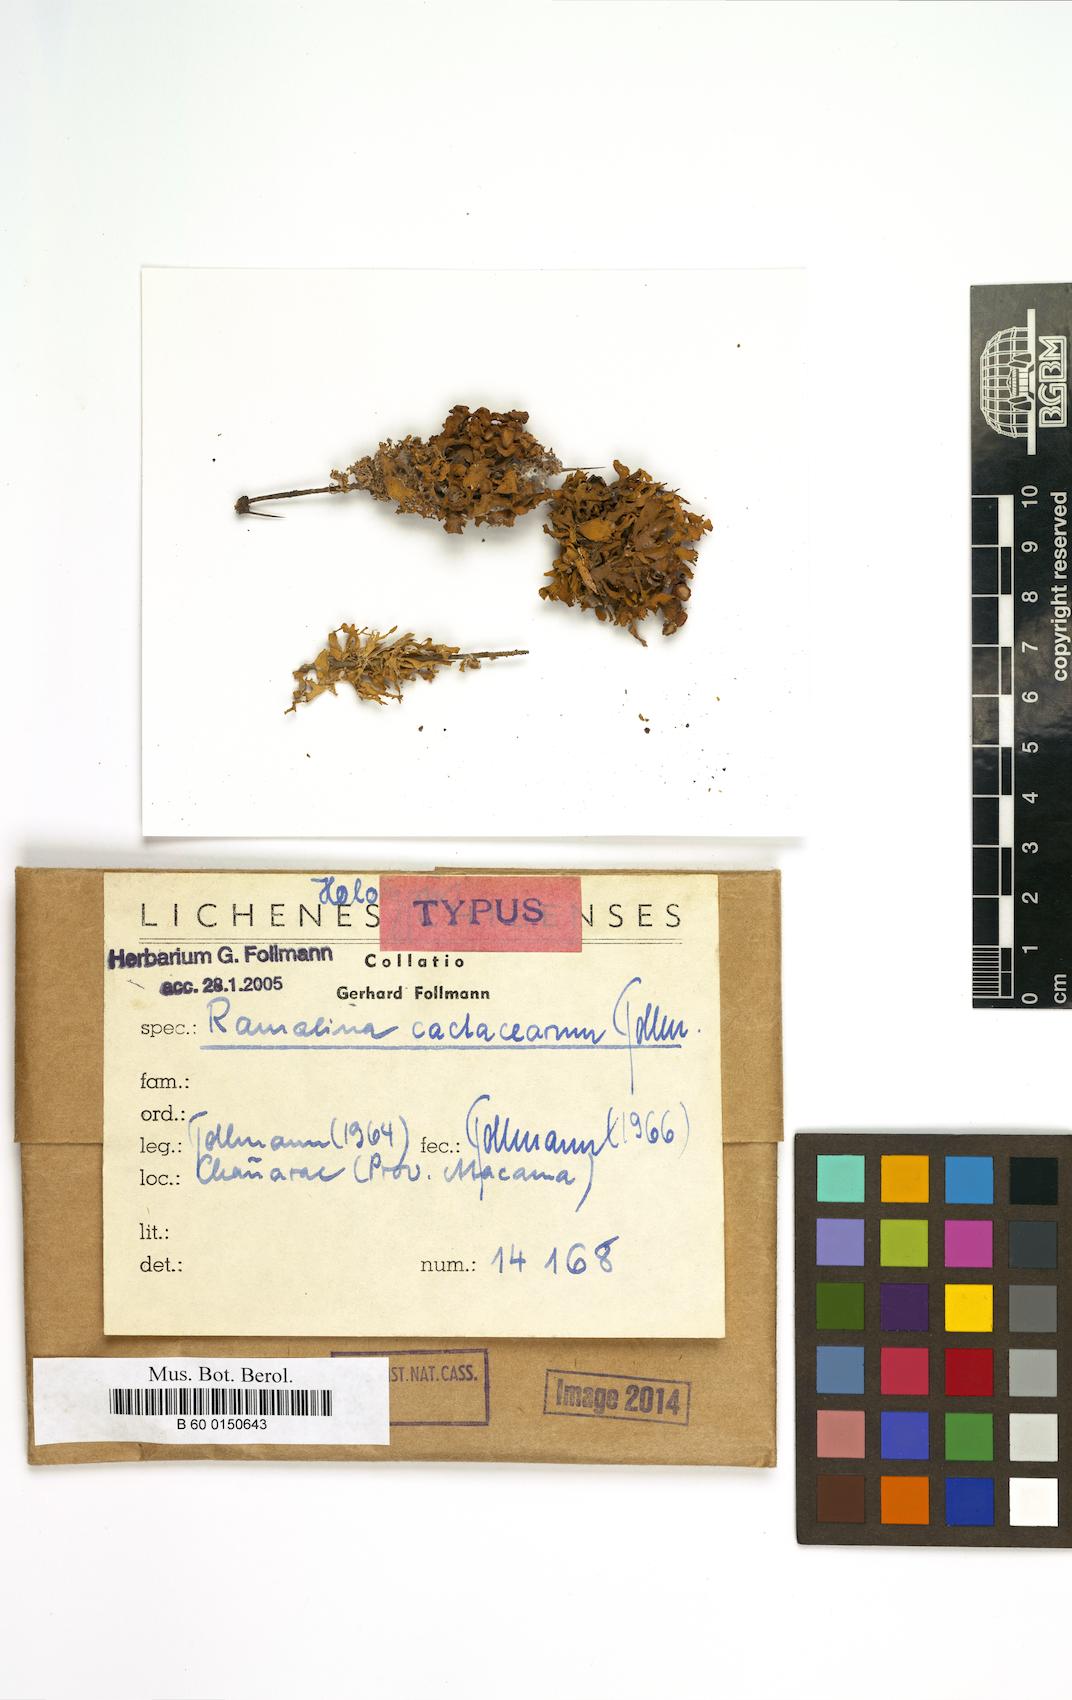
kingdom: Fungi
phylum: Ascomycota
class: Lecanoromycetes
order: Lecanorales
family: Ramalinaceae
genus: Ramalina
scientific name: Ramalina cactacearum
